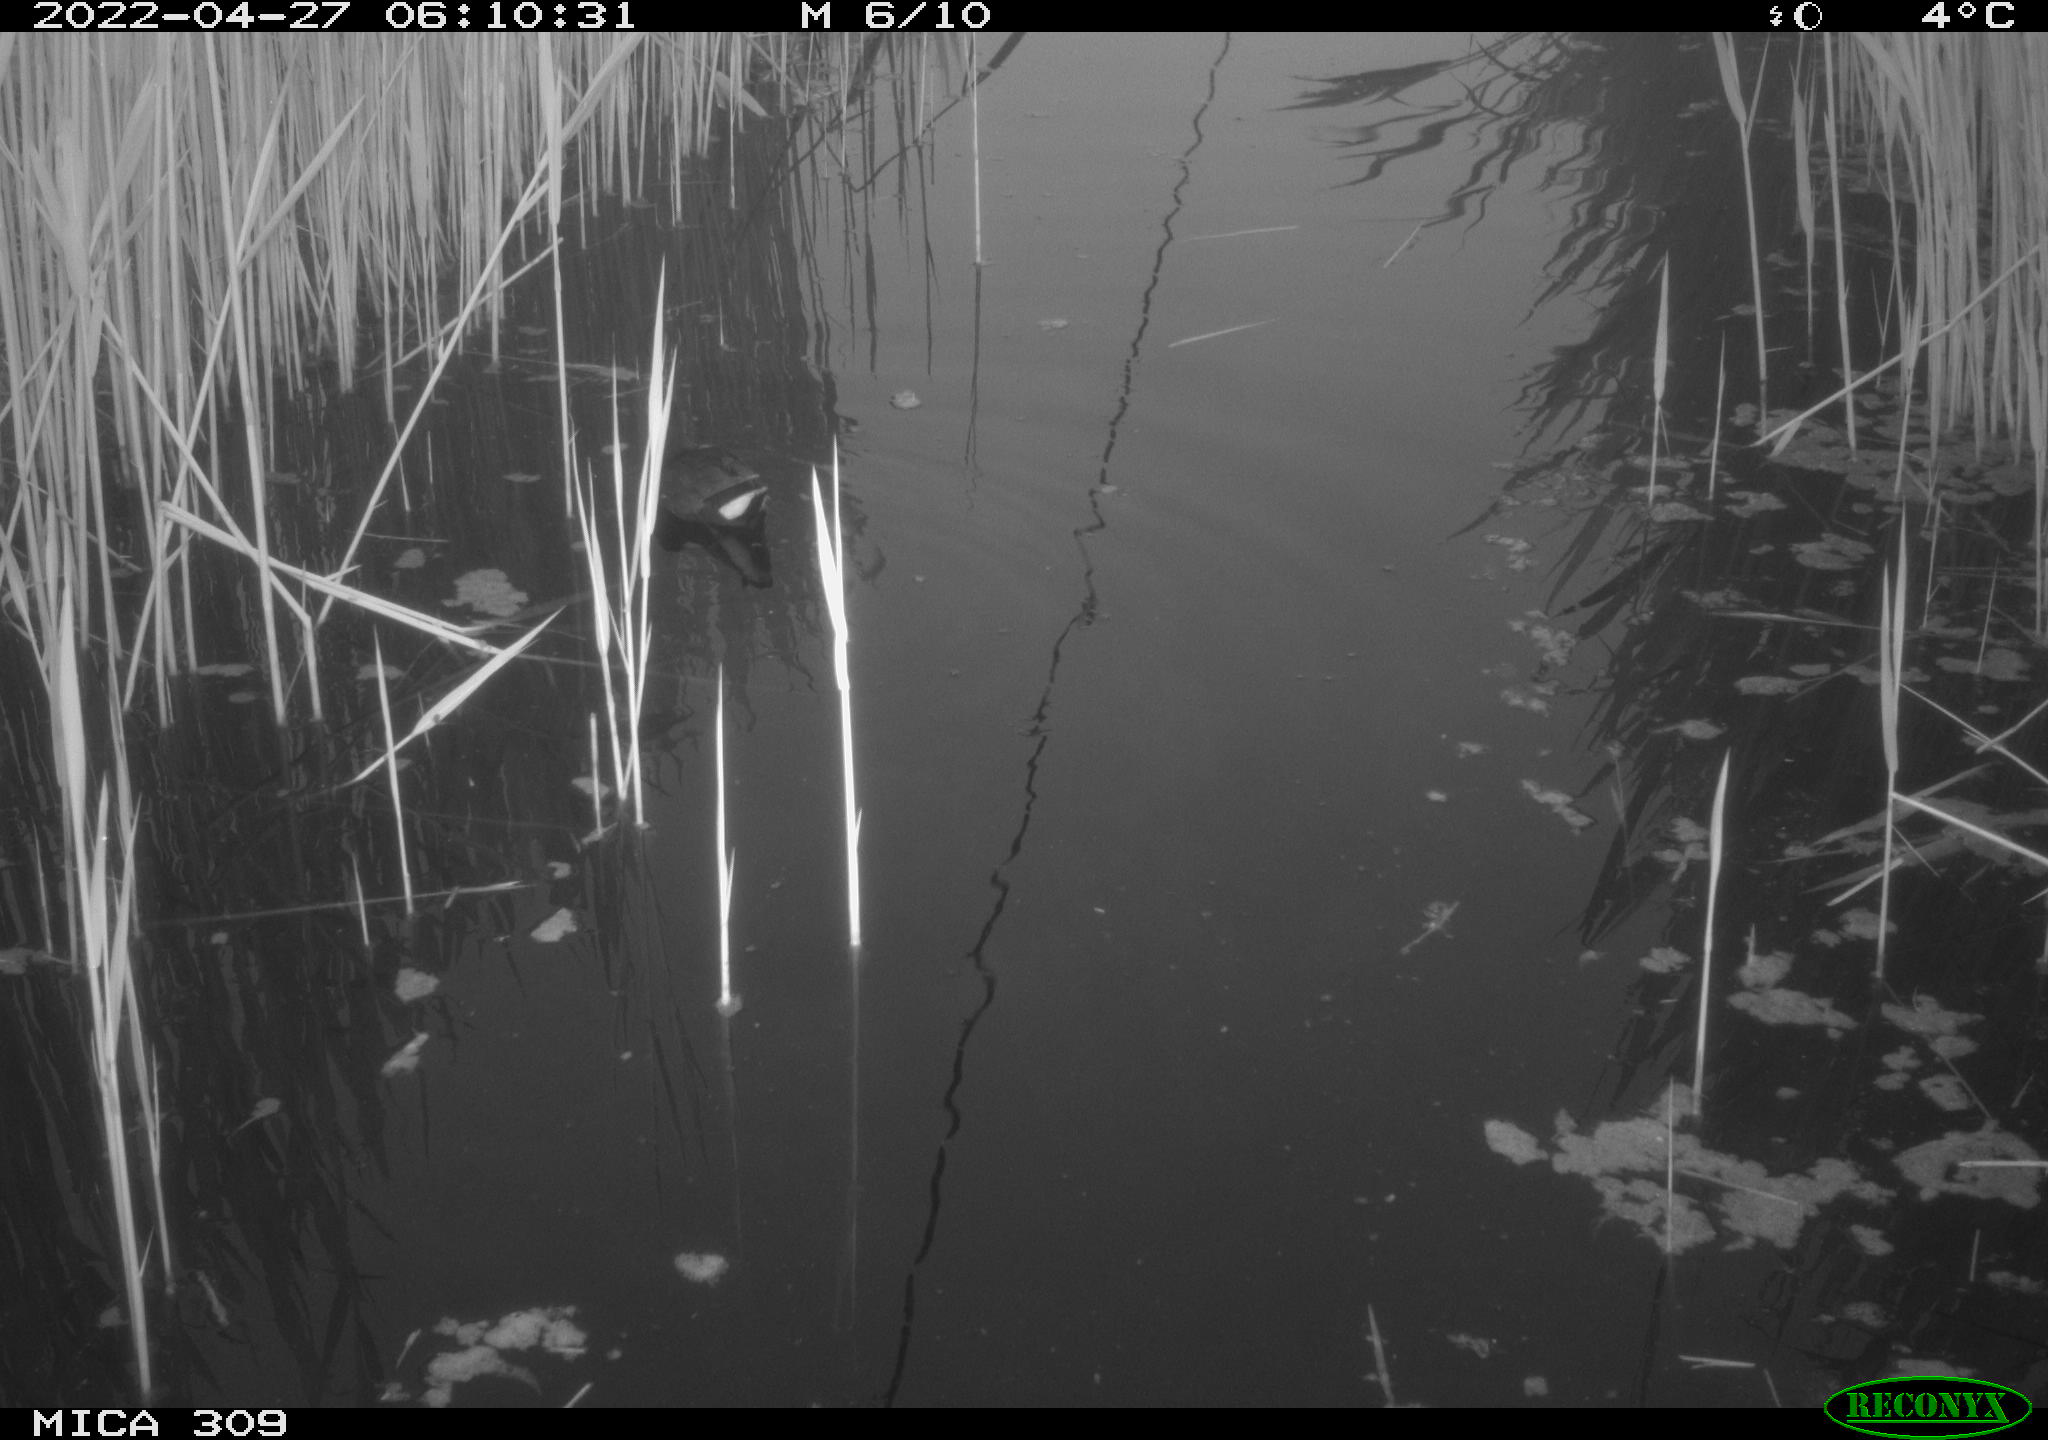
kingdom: Animalia
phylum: Chordata
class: Aves
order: Gruiformes
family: Rallidae
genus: Gallinula
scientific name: Gallinula chloropus
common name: Common moorhen
